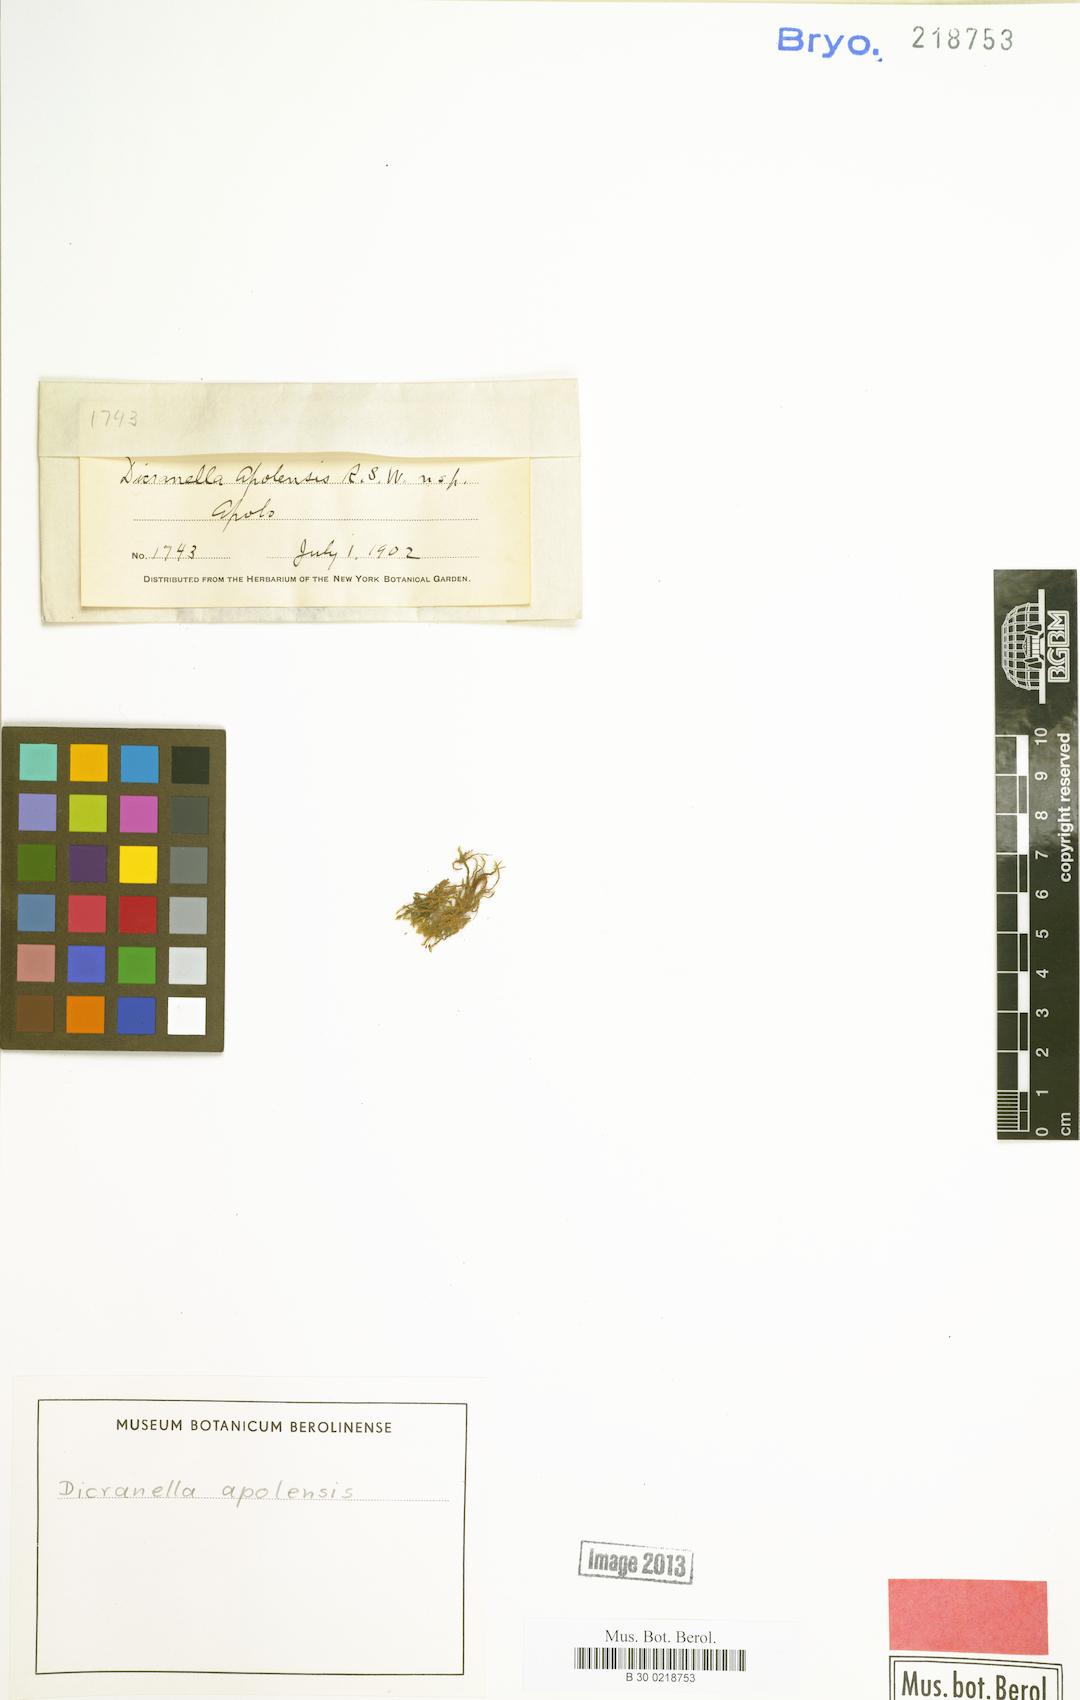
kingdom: Plantae
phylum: Bryophyta
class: Bryopsida
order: Dicranales
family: Dicranellaceae
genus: Dicranella
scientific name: Dicranella apolensis
